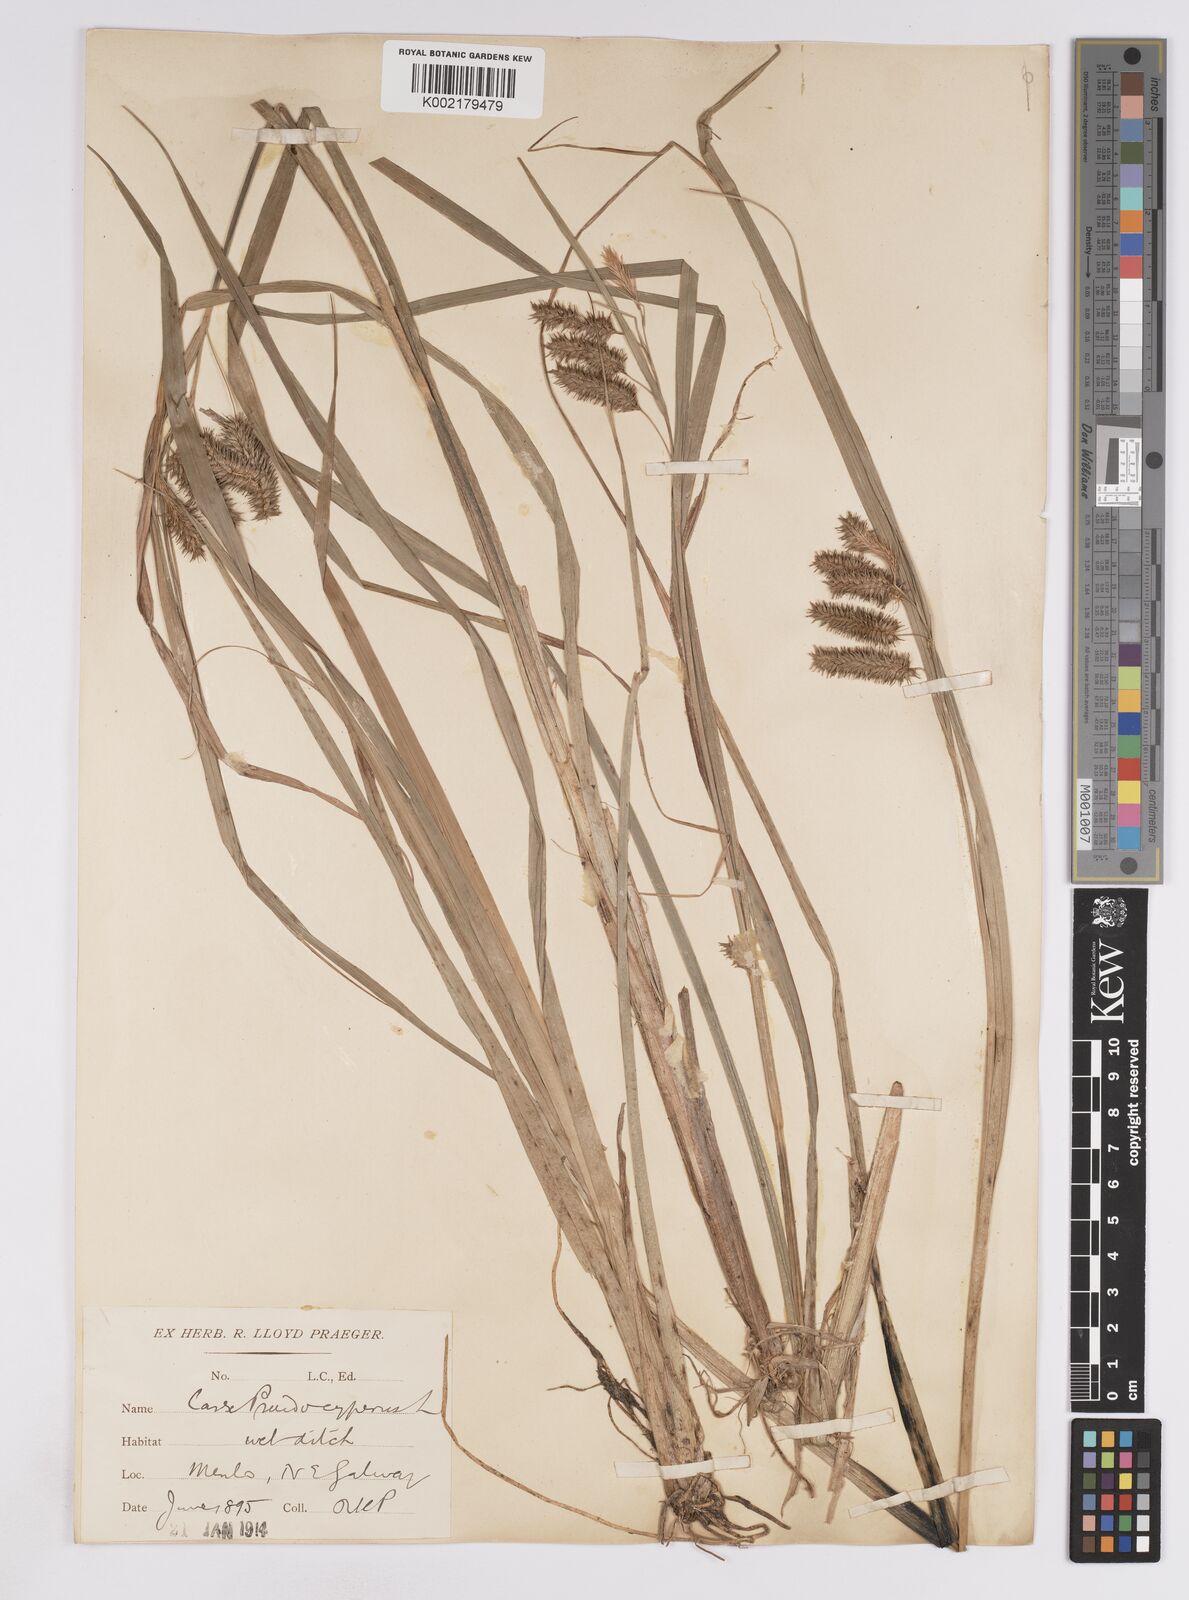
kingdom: Plantae
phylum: Tracheophyta
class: Liliopsida
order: Poales
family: Cyperaceae
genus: Carex
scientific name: Carex pseudocyperus
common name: Cyperus sedge
